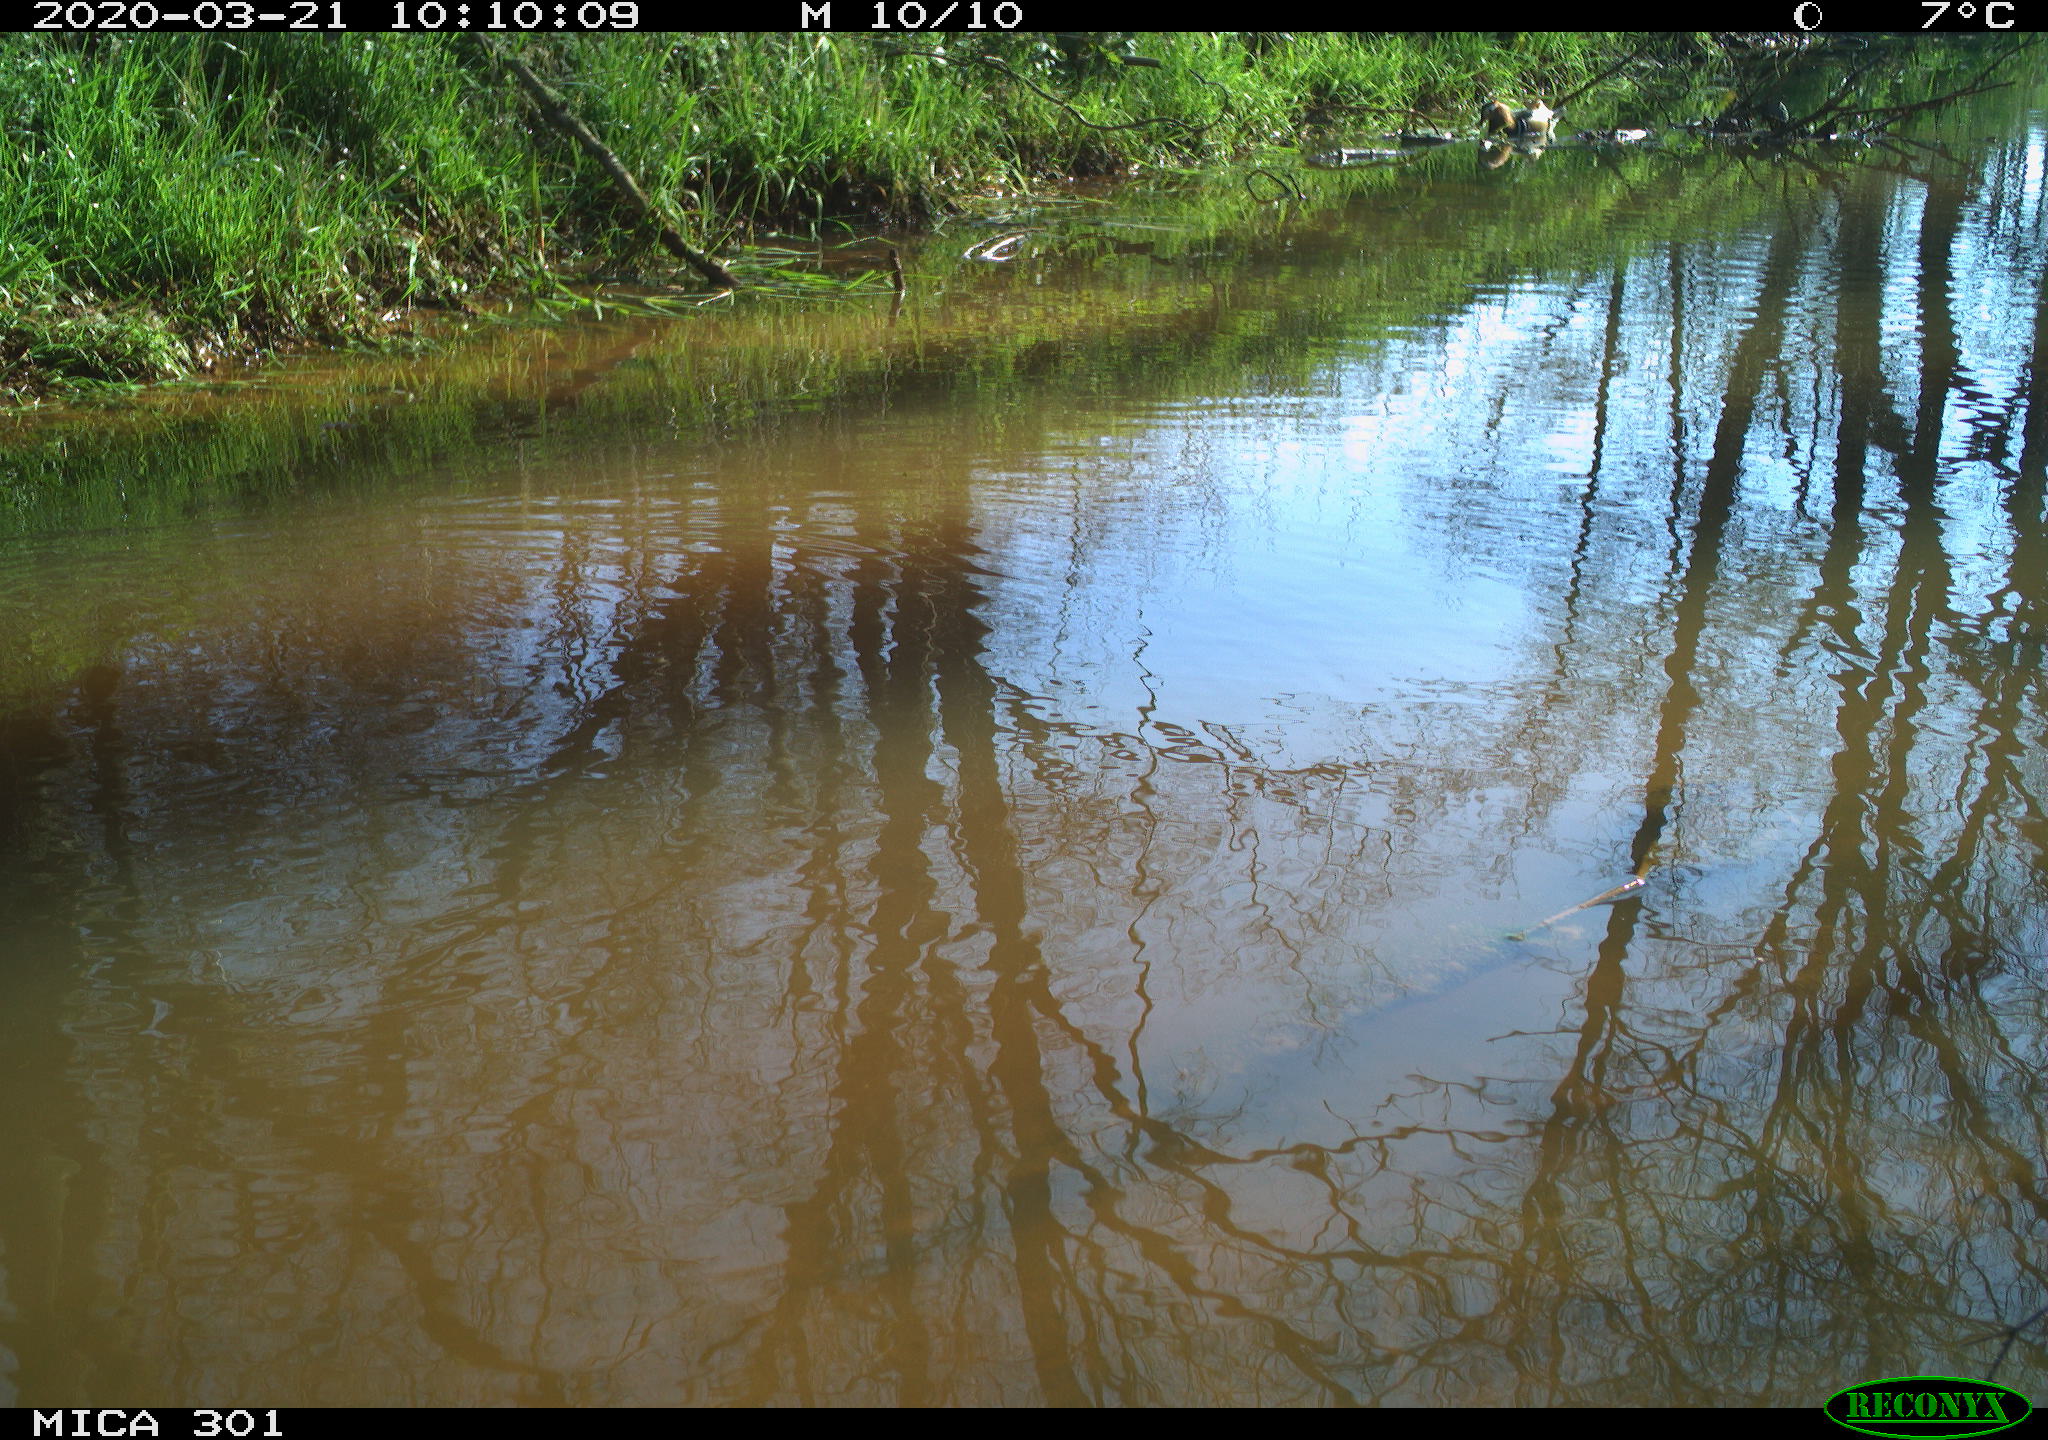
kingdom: Animalia
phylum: Chordata
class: Aves
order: Anseriformes
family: Anatidae
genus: Aix
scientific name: Aix galericulata
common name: Mandarin duck
